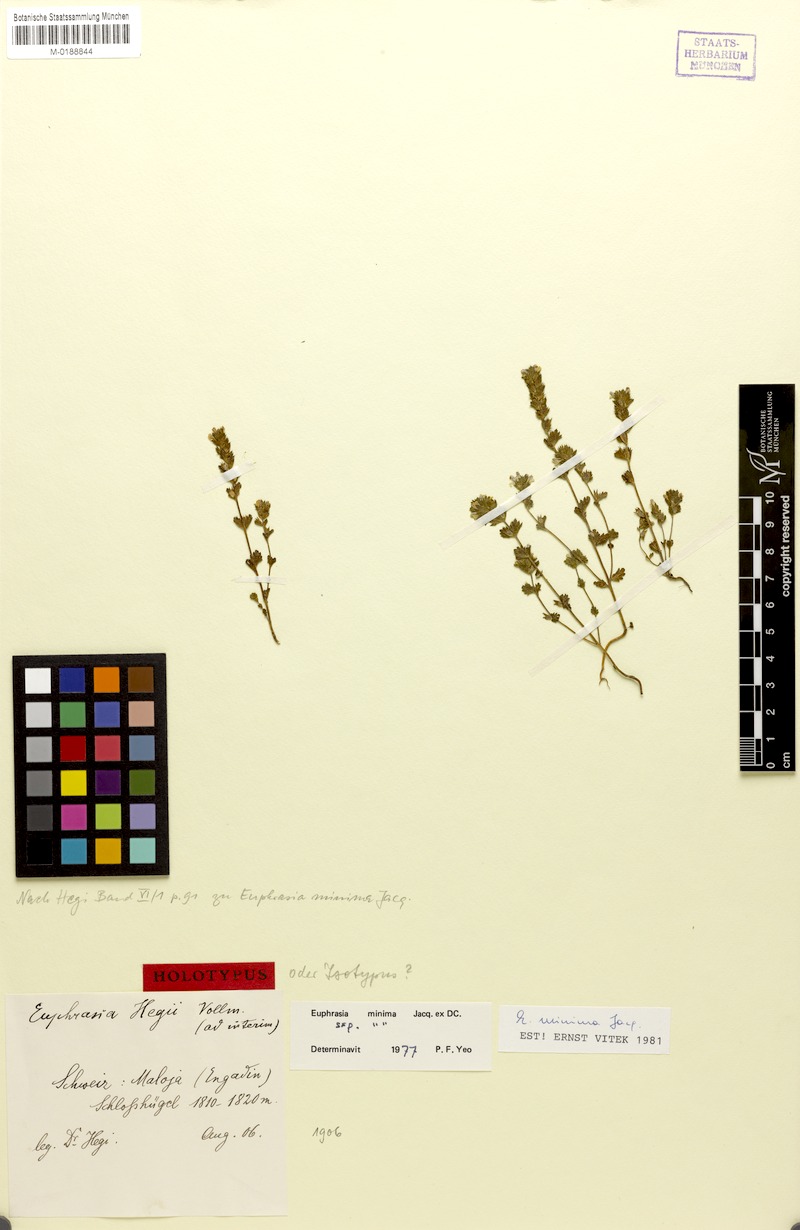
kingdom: Plantae
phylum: Tracheophyta
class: Magnoliopsida
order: Lamiales
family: Orobanchaceae
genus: Euphrasia
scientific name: Euphrasia minima
